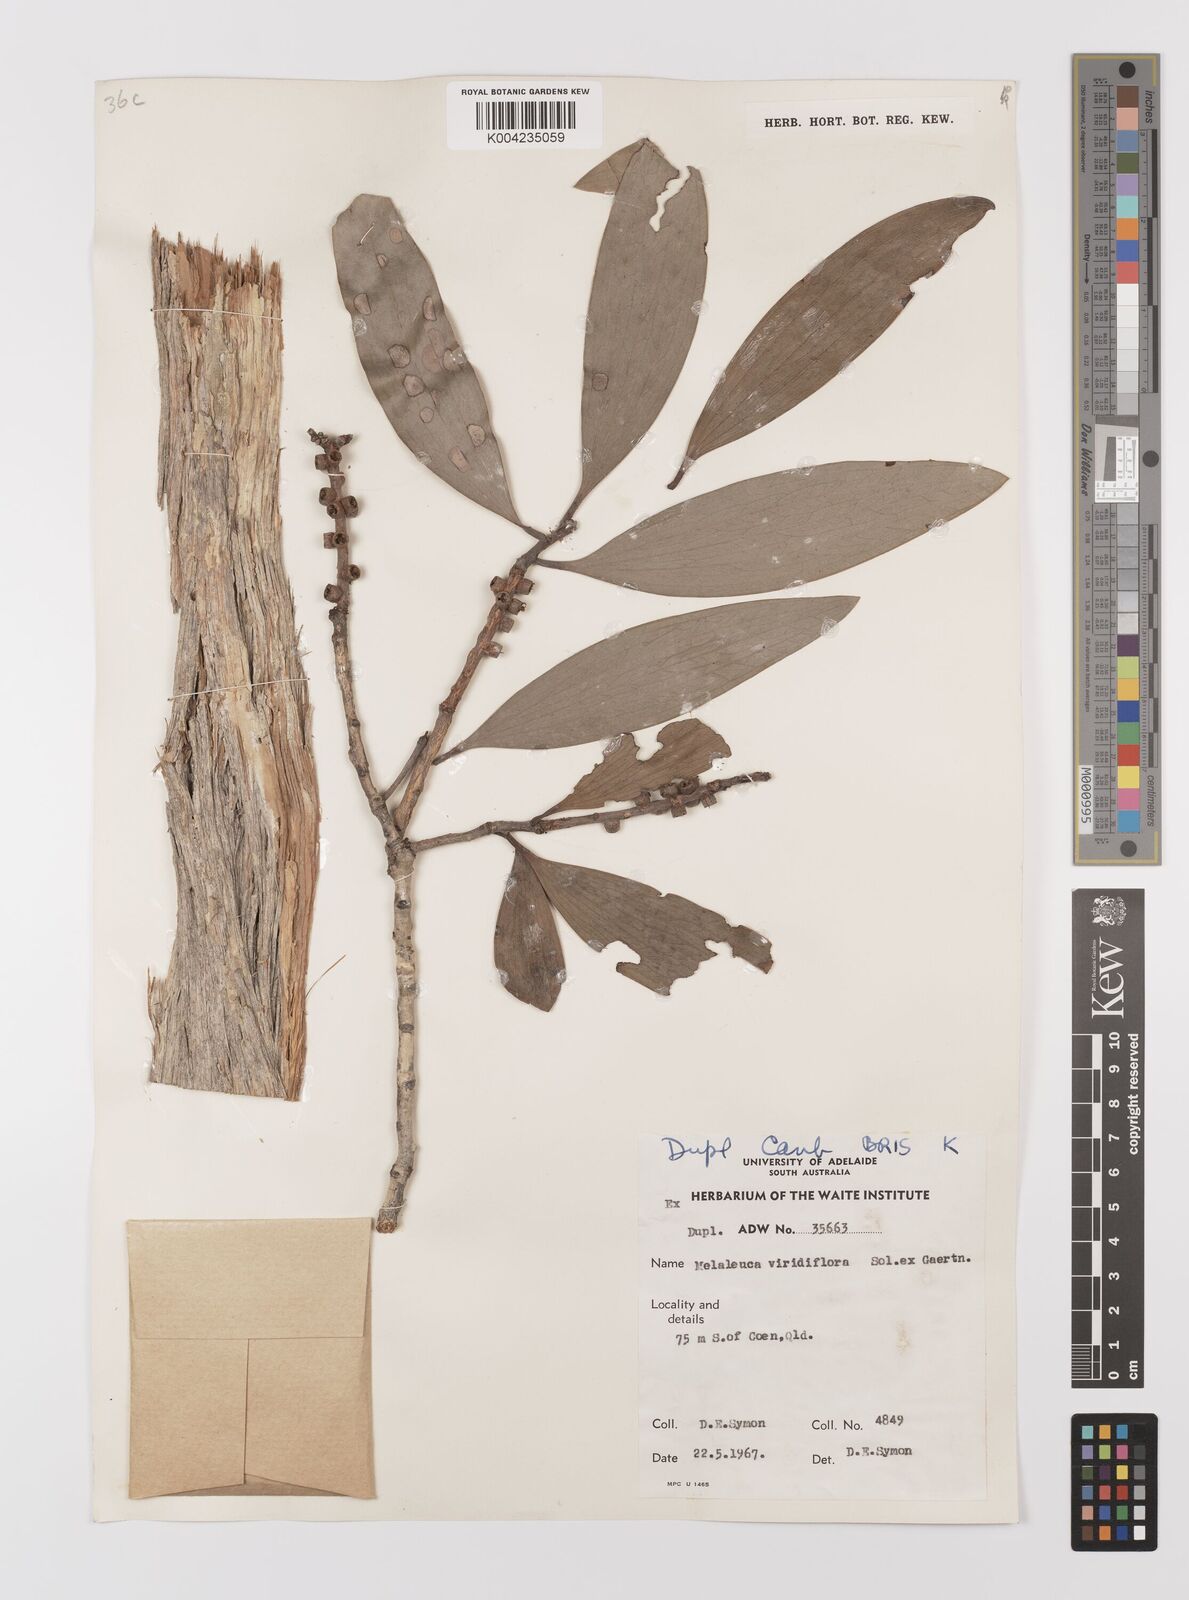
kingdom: Plantae
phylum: Tracheophyta
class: Magnoliopsida
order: Myrtales
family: Myrtaceae
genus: Melaleuca
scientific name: Melaleuca viridiflora
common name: Brown-leaved paperbark
